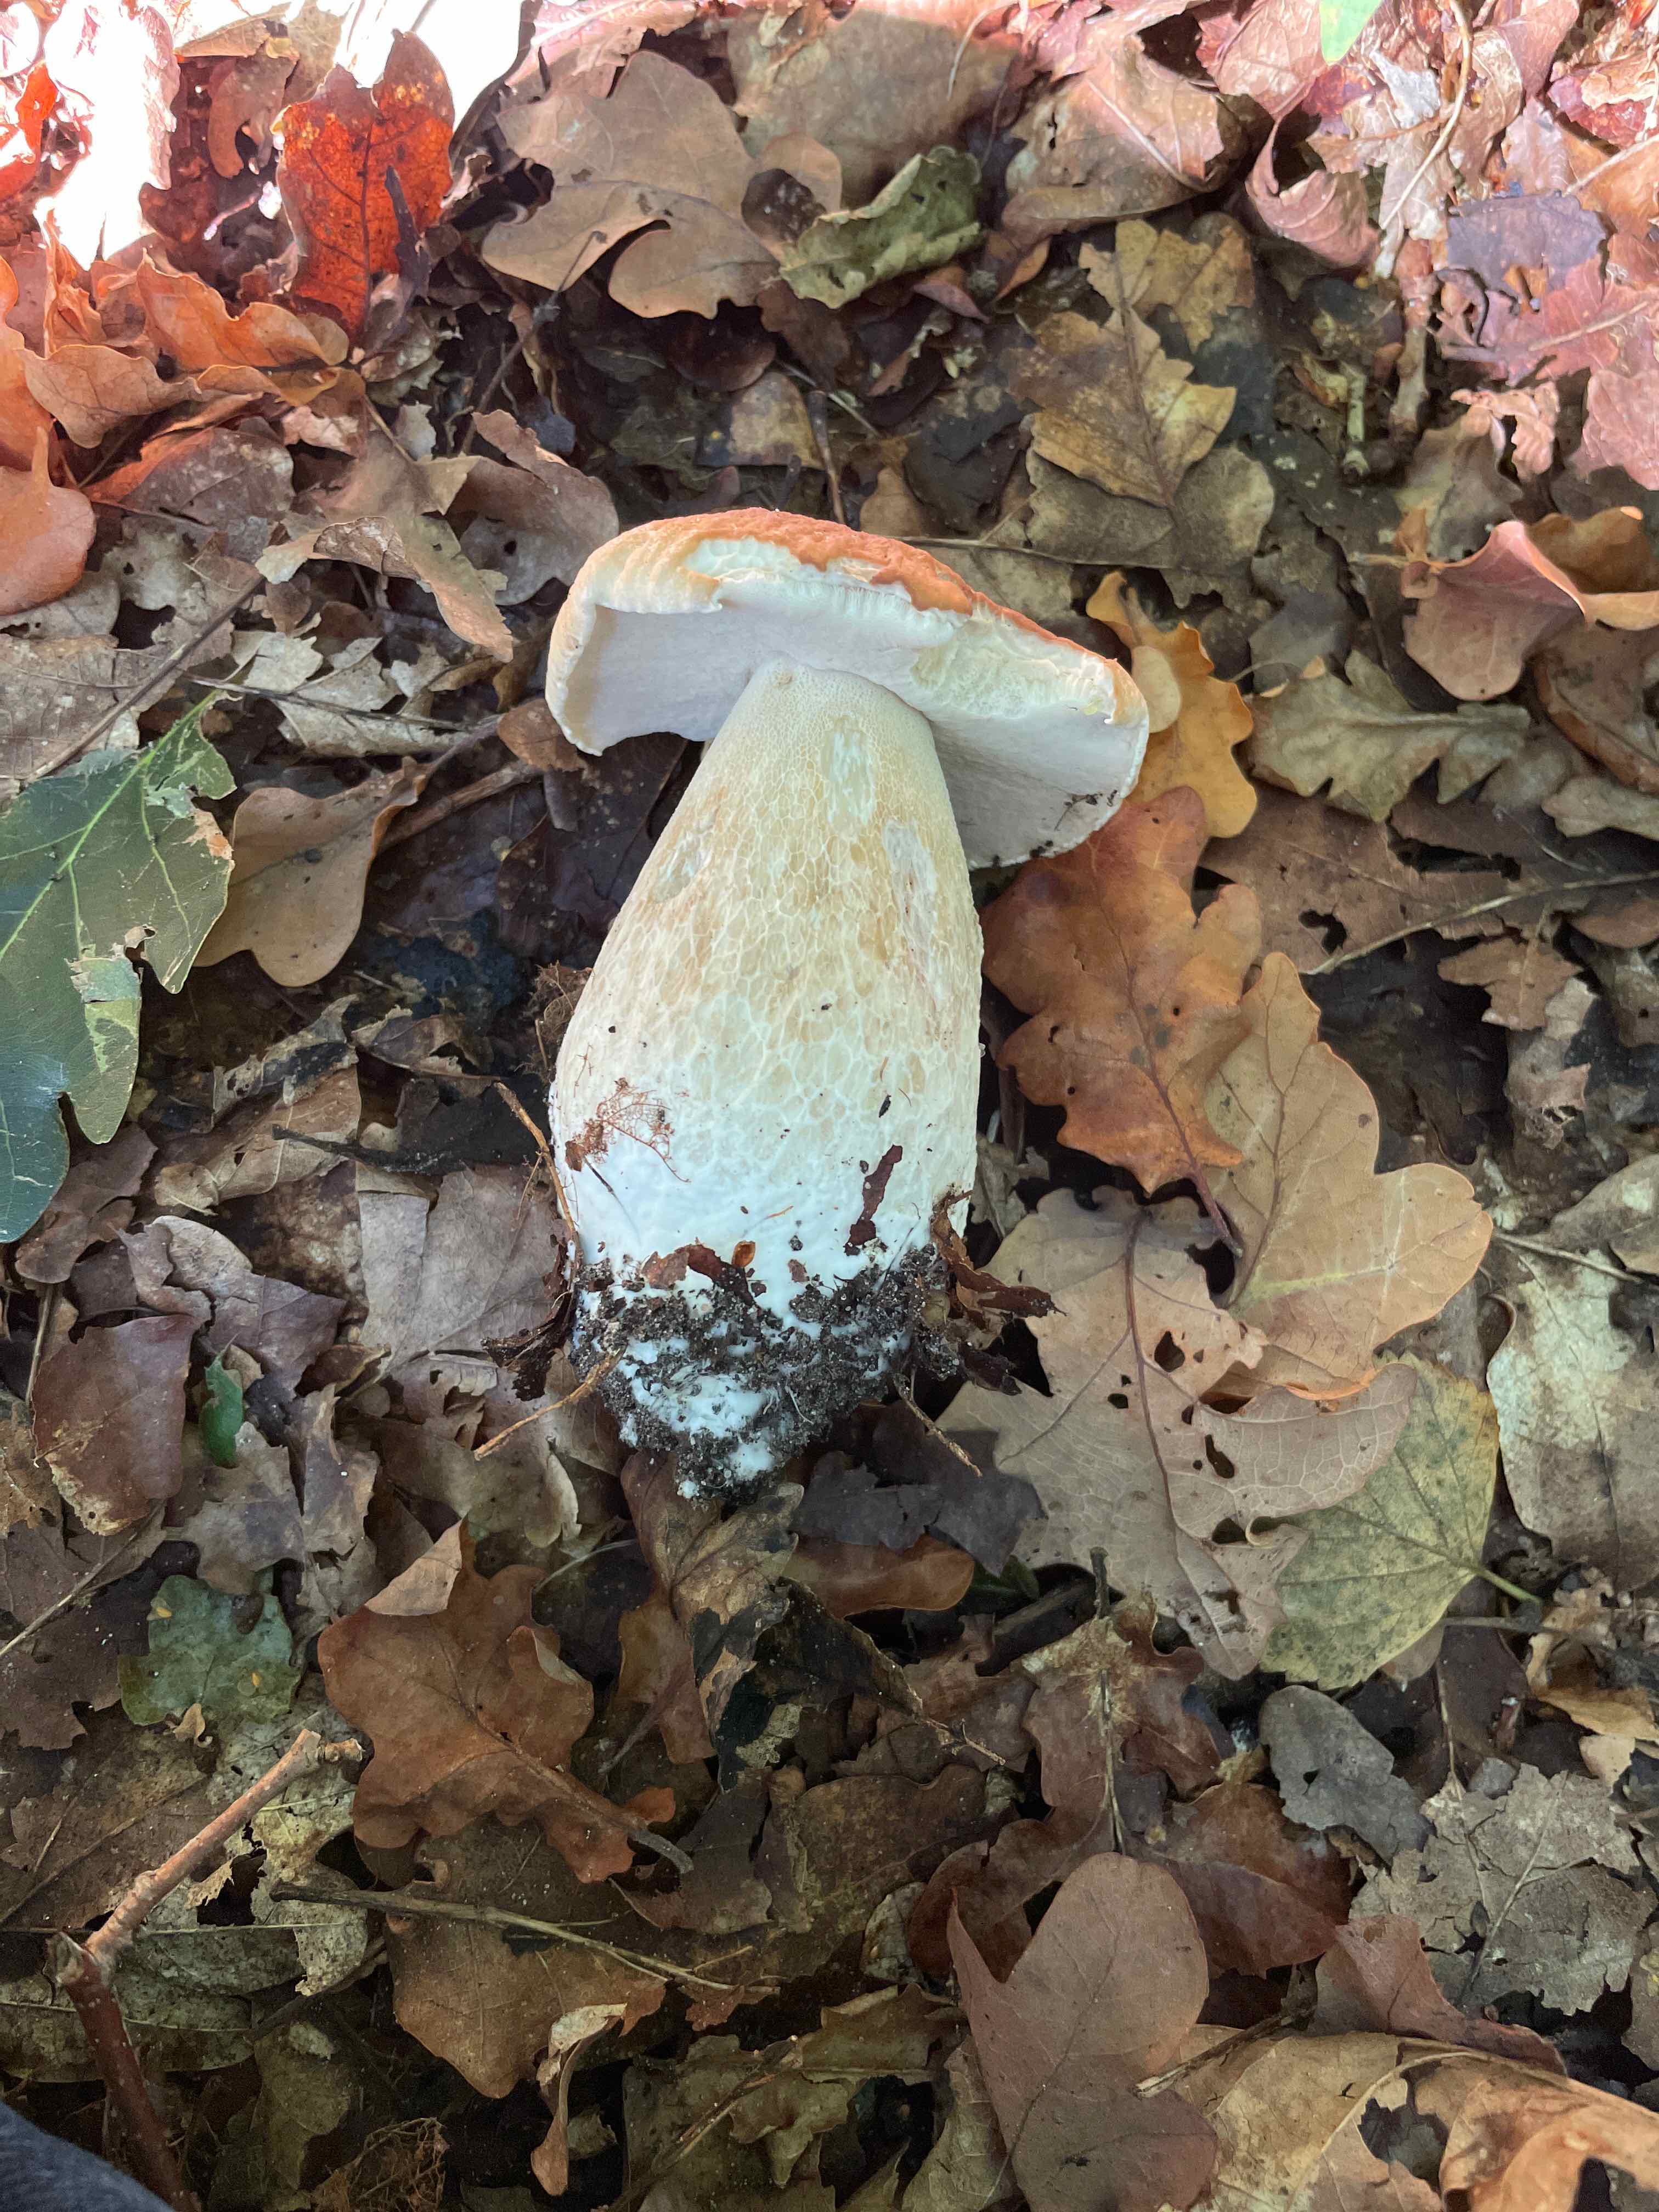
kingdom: Fungi
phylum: Basidiomycota
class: Agaricomycetes
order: Boletales
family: Boletaceae
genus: Boletus
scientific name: Boletus edulis
